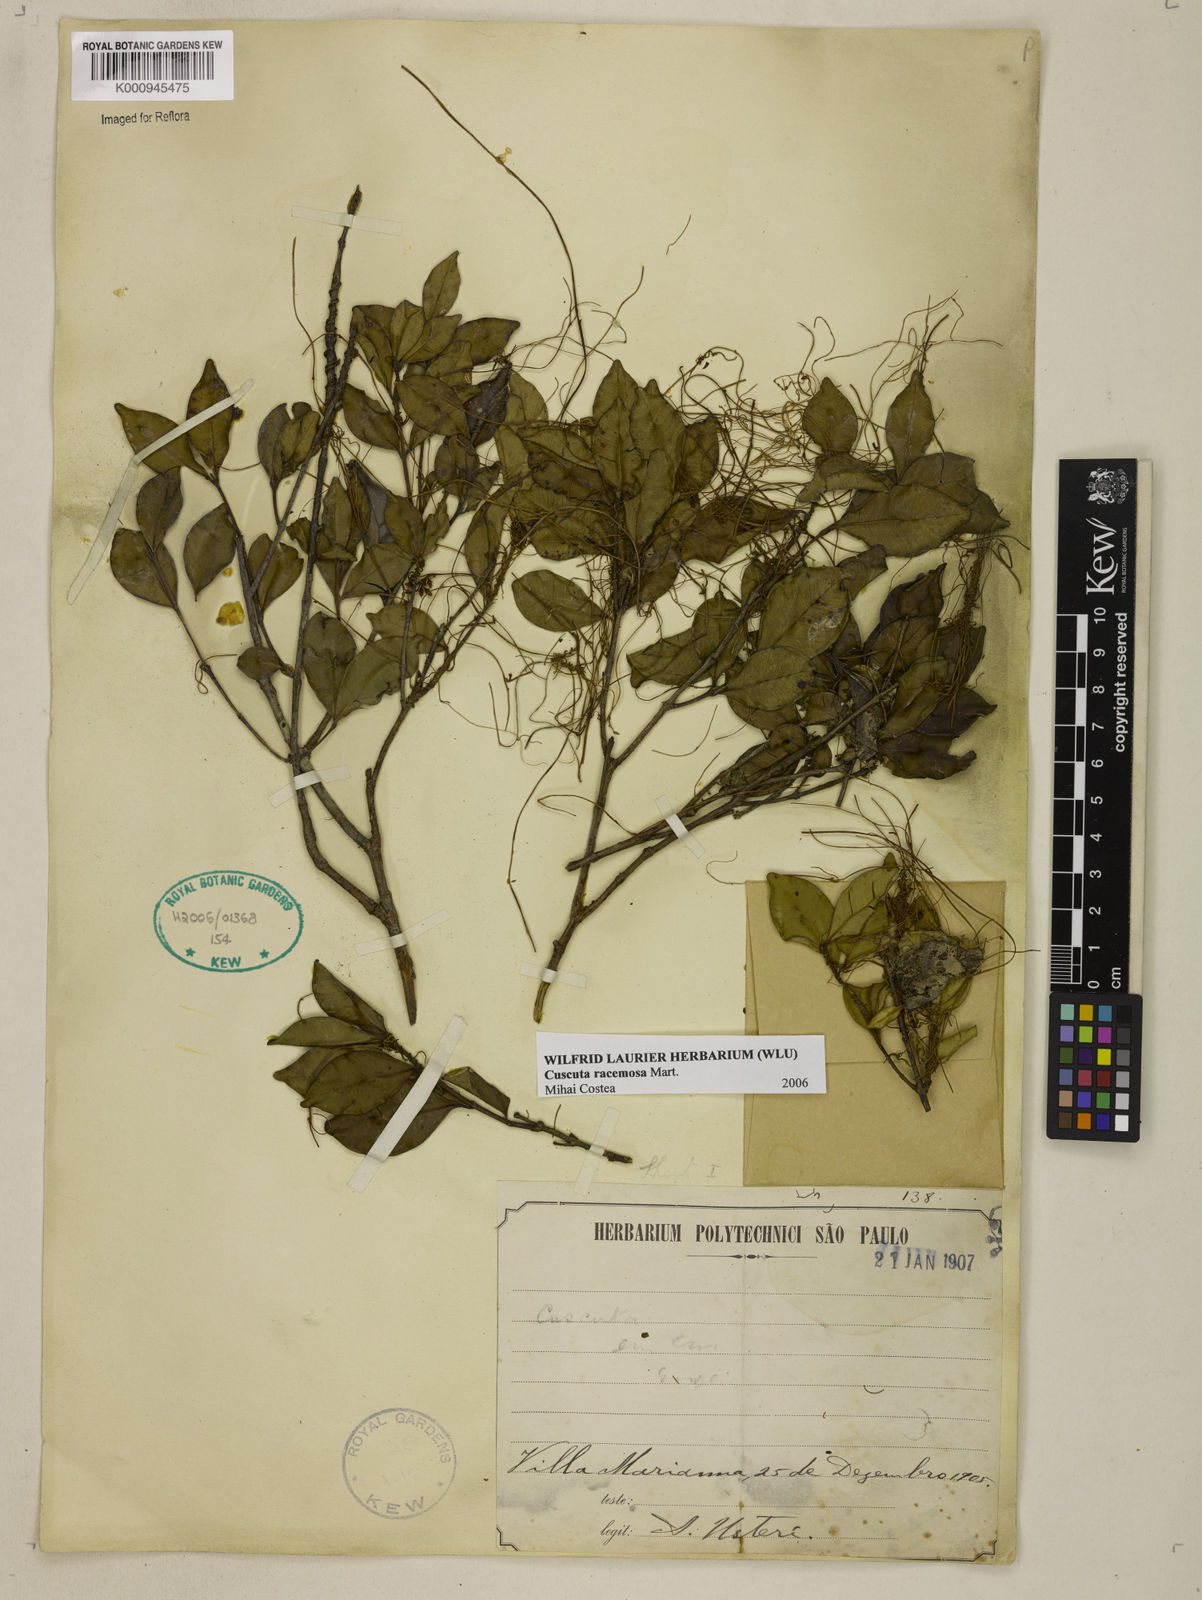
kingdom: Plantae
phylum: Tracheophyta
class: Magnoliopsida
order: Solanales
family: Convolvulaceae
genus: Cuscuta
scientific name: Cuscuta racemosa
